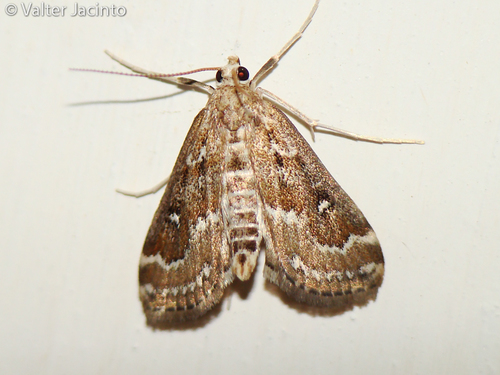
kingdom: Animalia
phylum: Arthropoda
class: Insecta
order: Lepidoptera
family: Crambidae
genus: Parapoynx
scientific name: Parapoynx stratiotata
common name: Ringed china-mark
